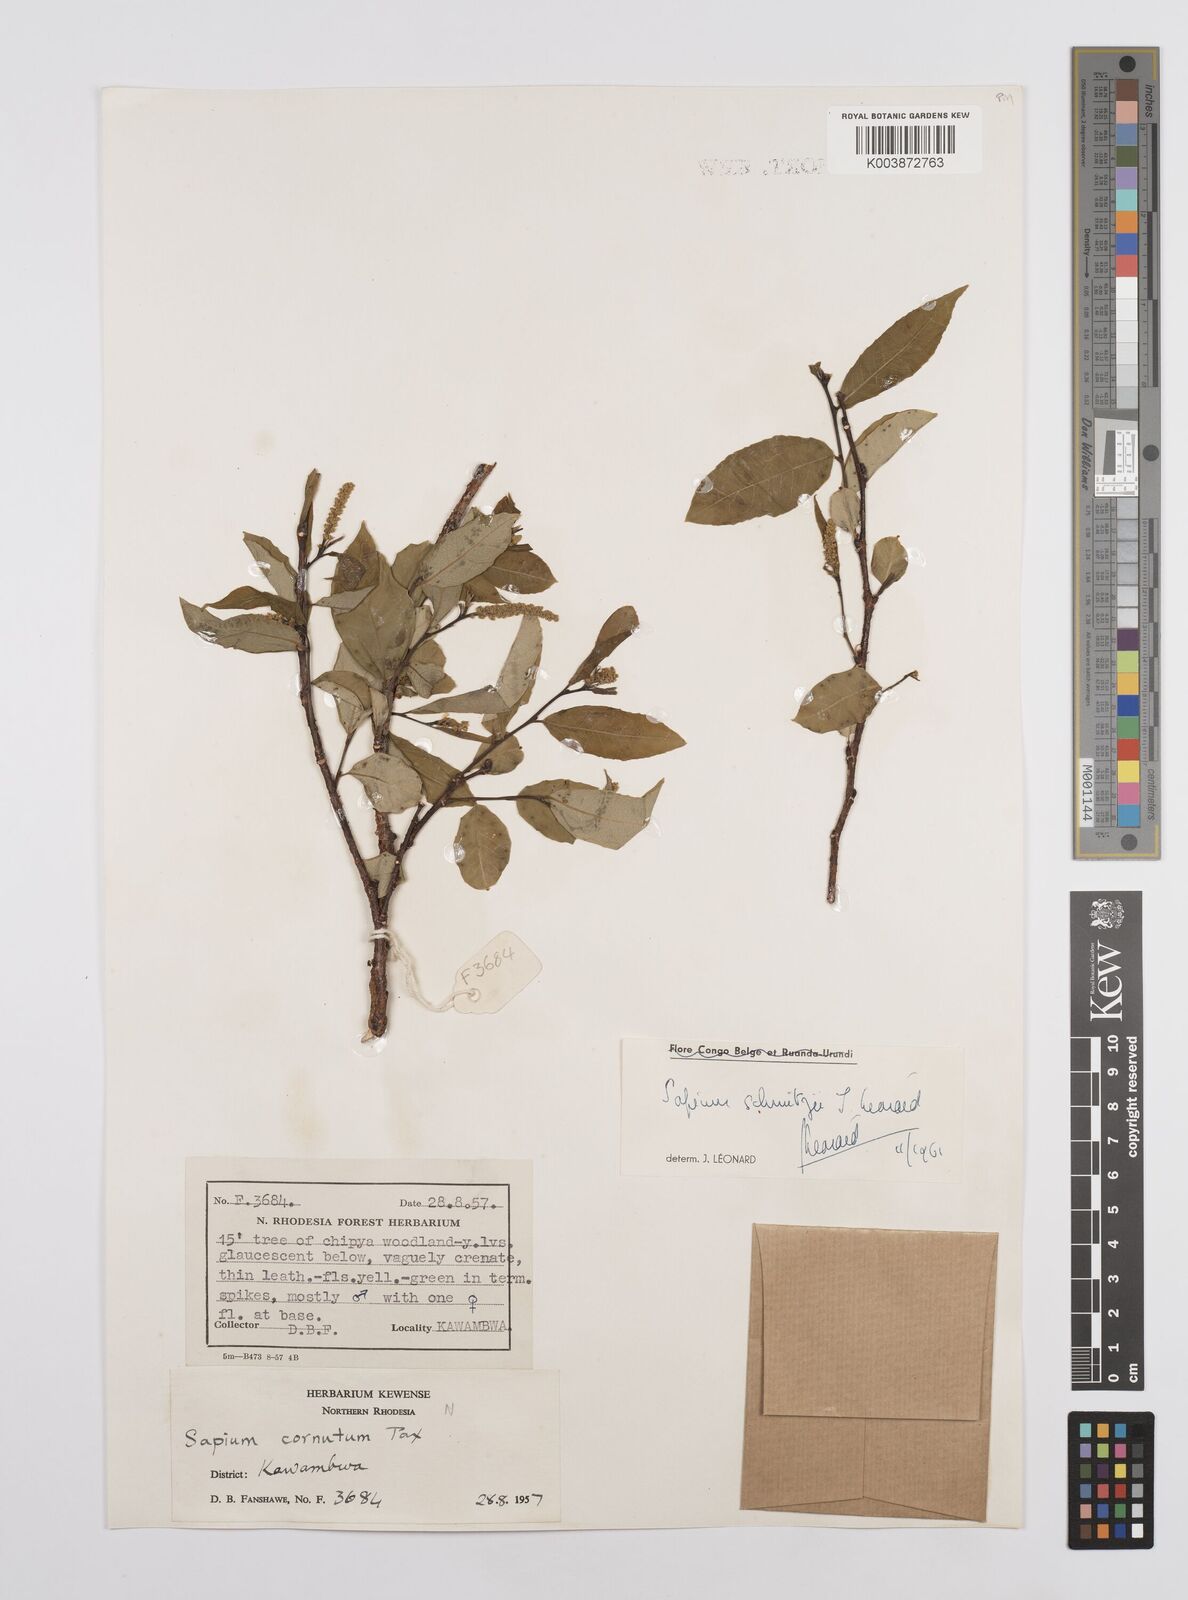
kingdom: Plantae
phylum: Tracheophyta
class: Magnoliopsida
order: Malpighiales
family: Euphorbiaceae
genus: Sclerocroton
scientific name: Sclerocroton schmitzii
